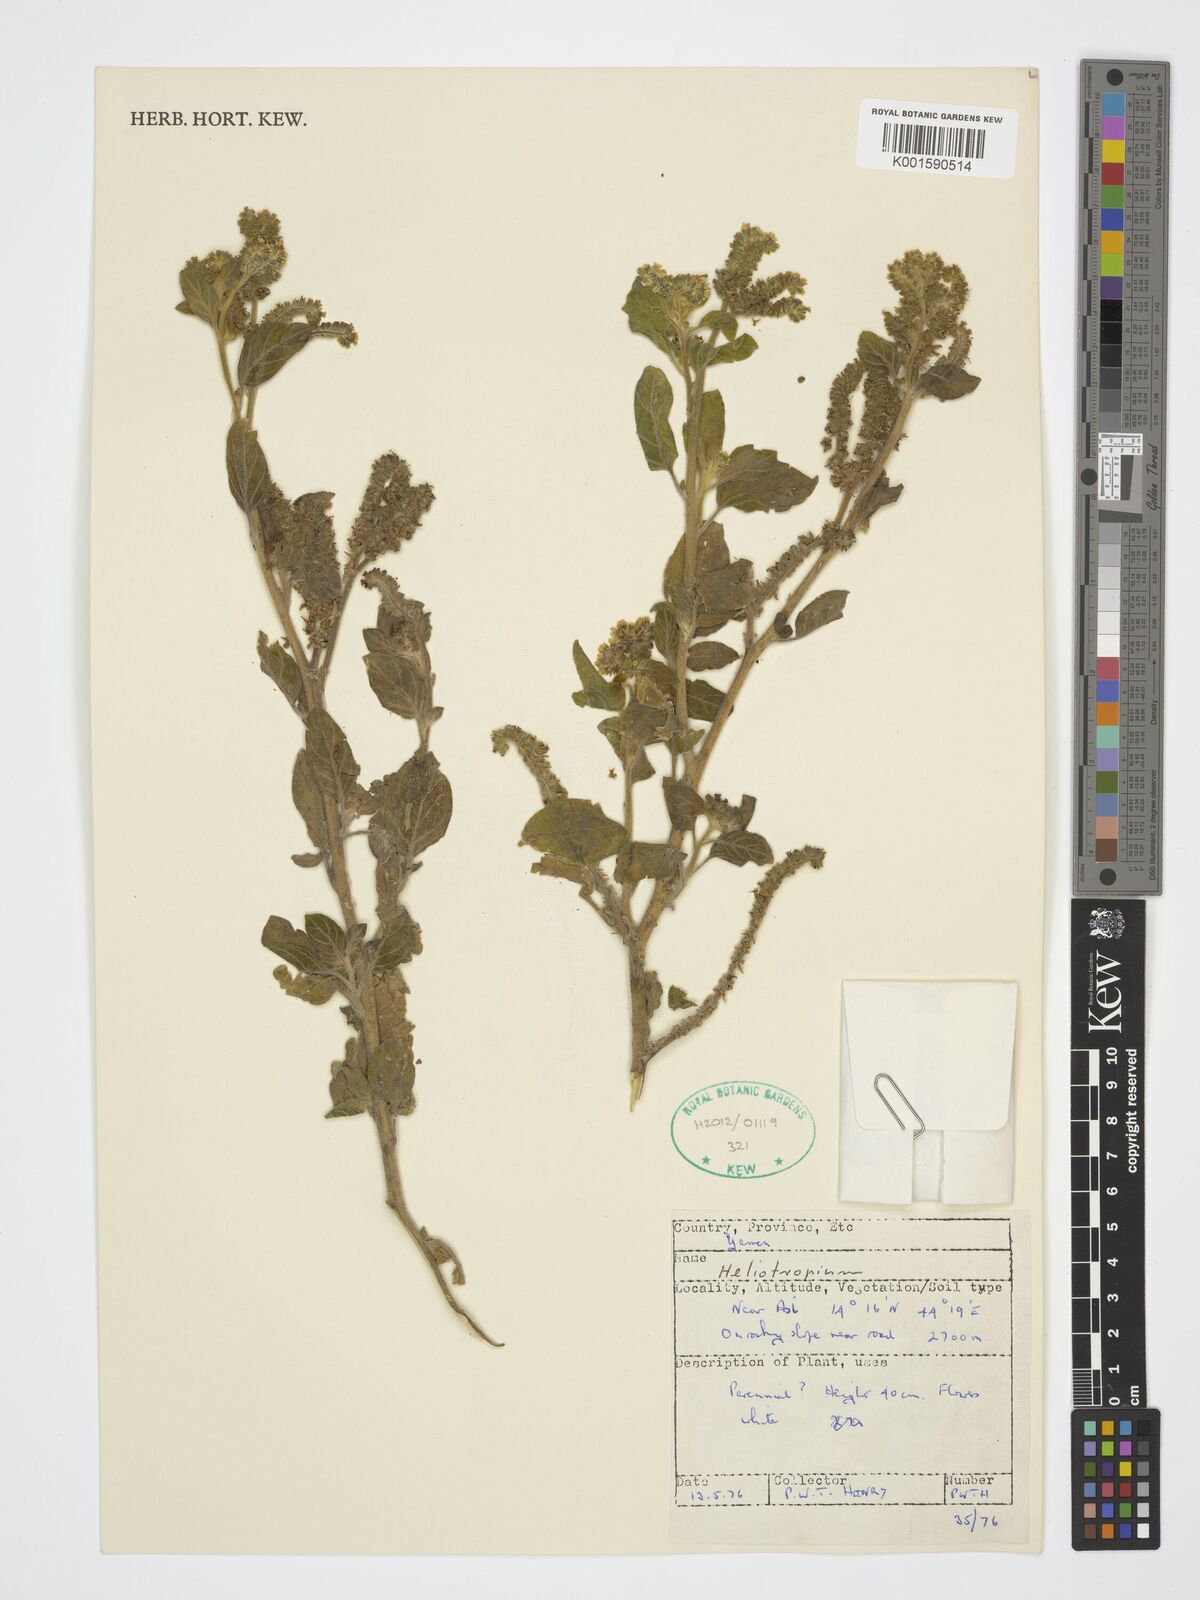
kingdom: Plantae
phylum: Tracheophyta
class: Magnoliopsida
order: Boraginales
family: Heliotropiaceae
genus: Heliotropium
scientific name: Heliotropium
